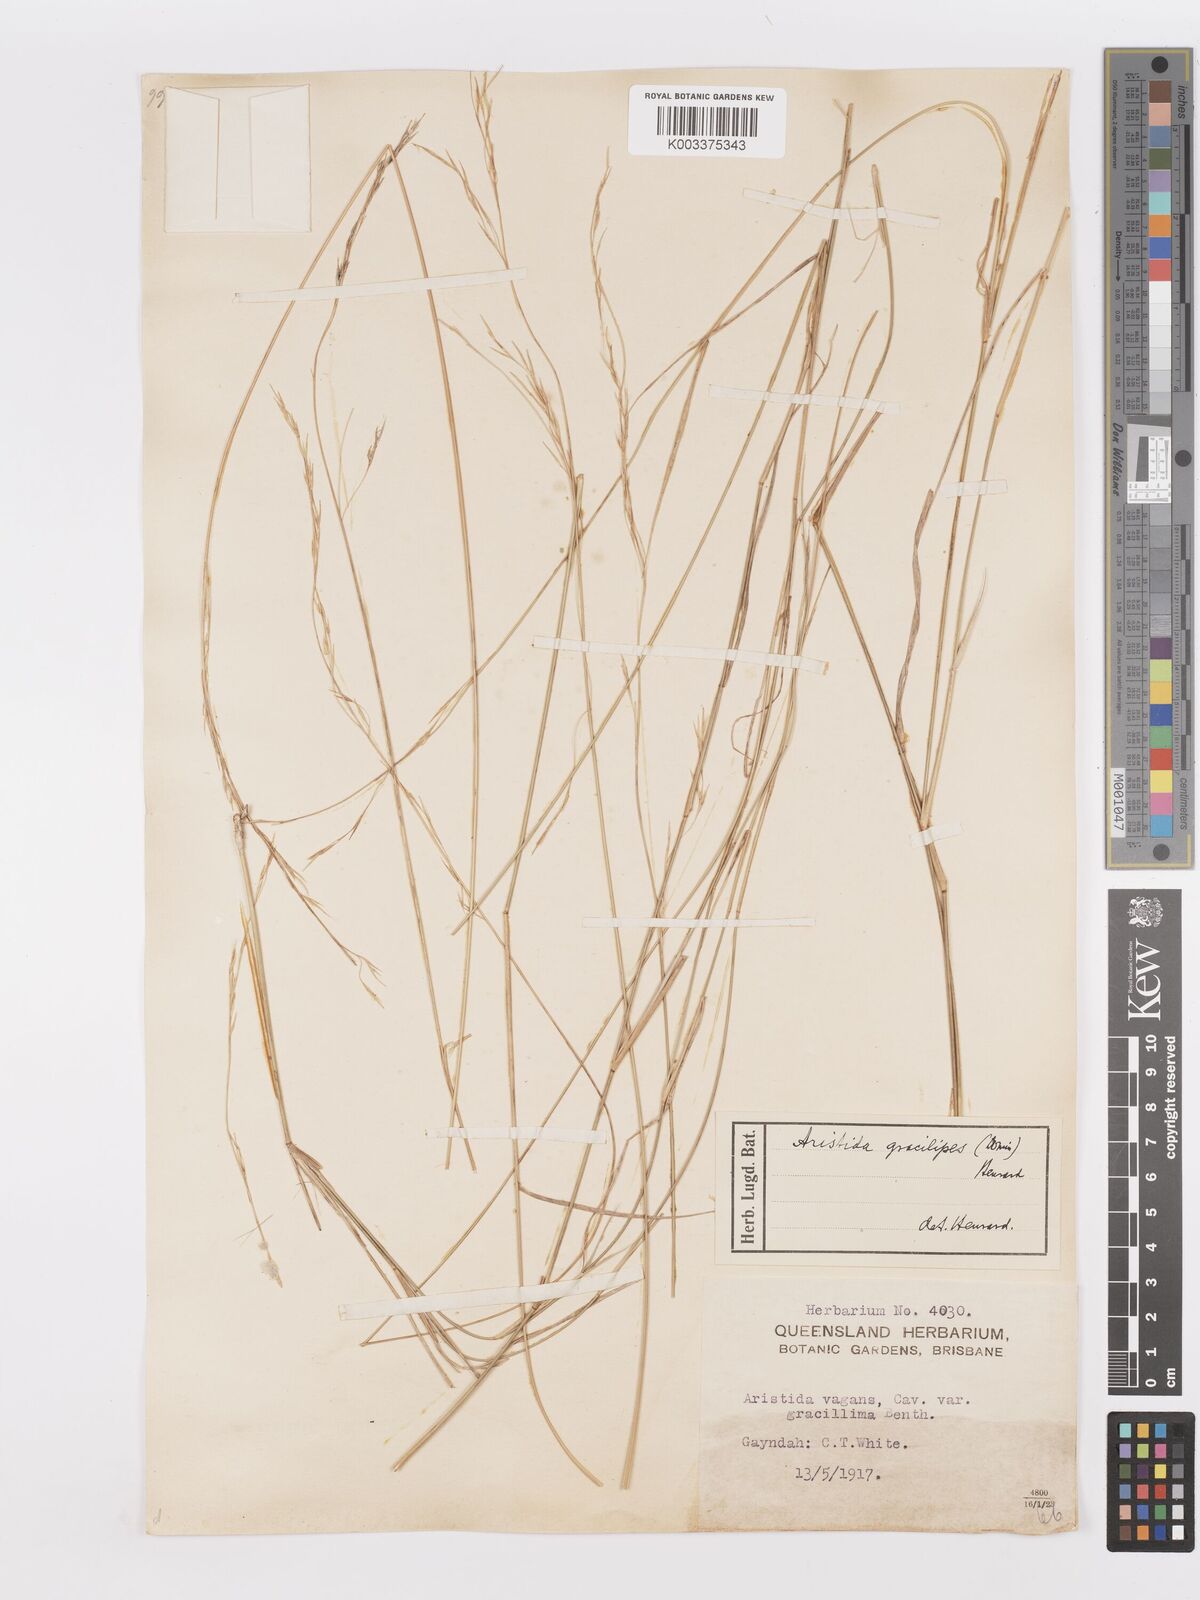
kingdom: Plantae
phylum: Tracheophyta
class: Liliopsida
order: Poales
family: Poaceae
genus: Aristida
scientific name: Aristida gracilipes
